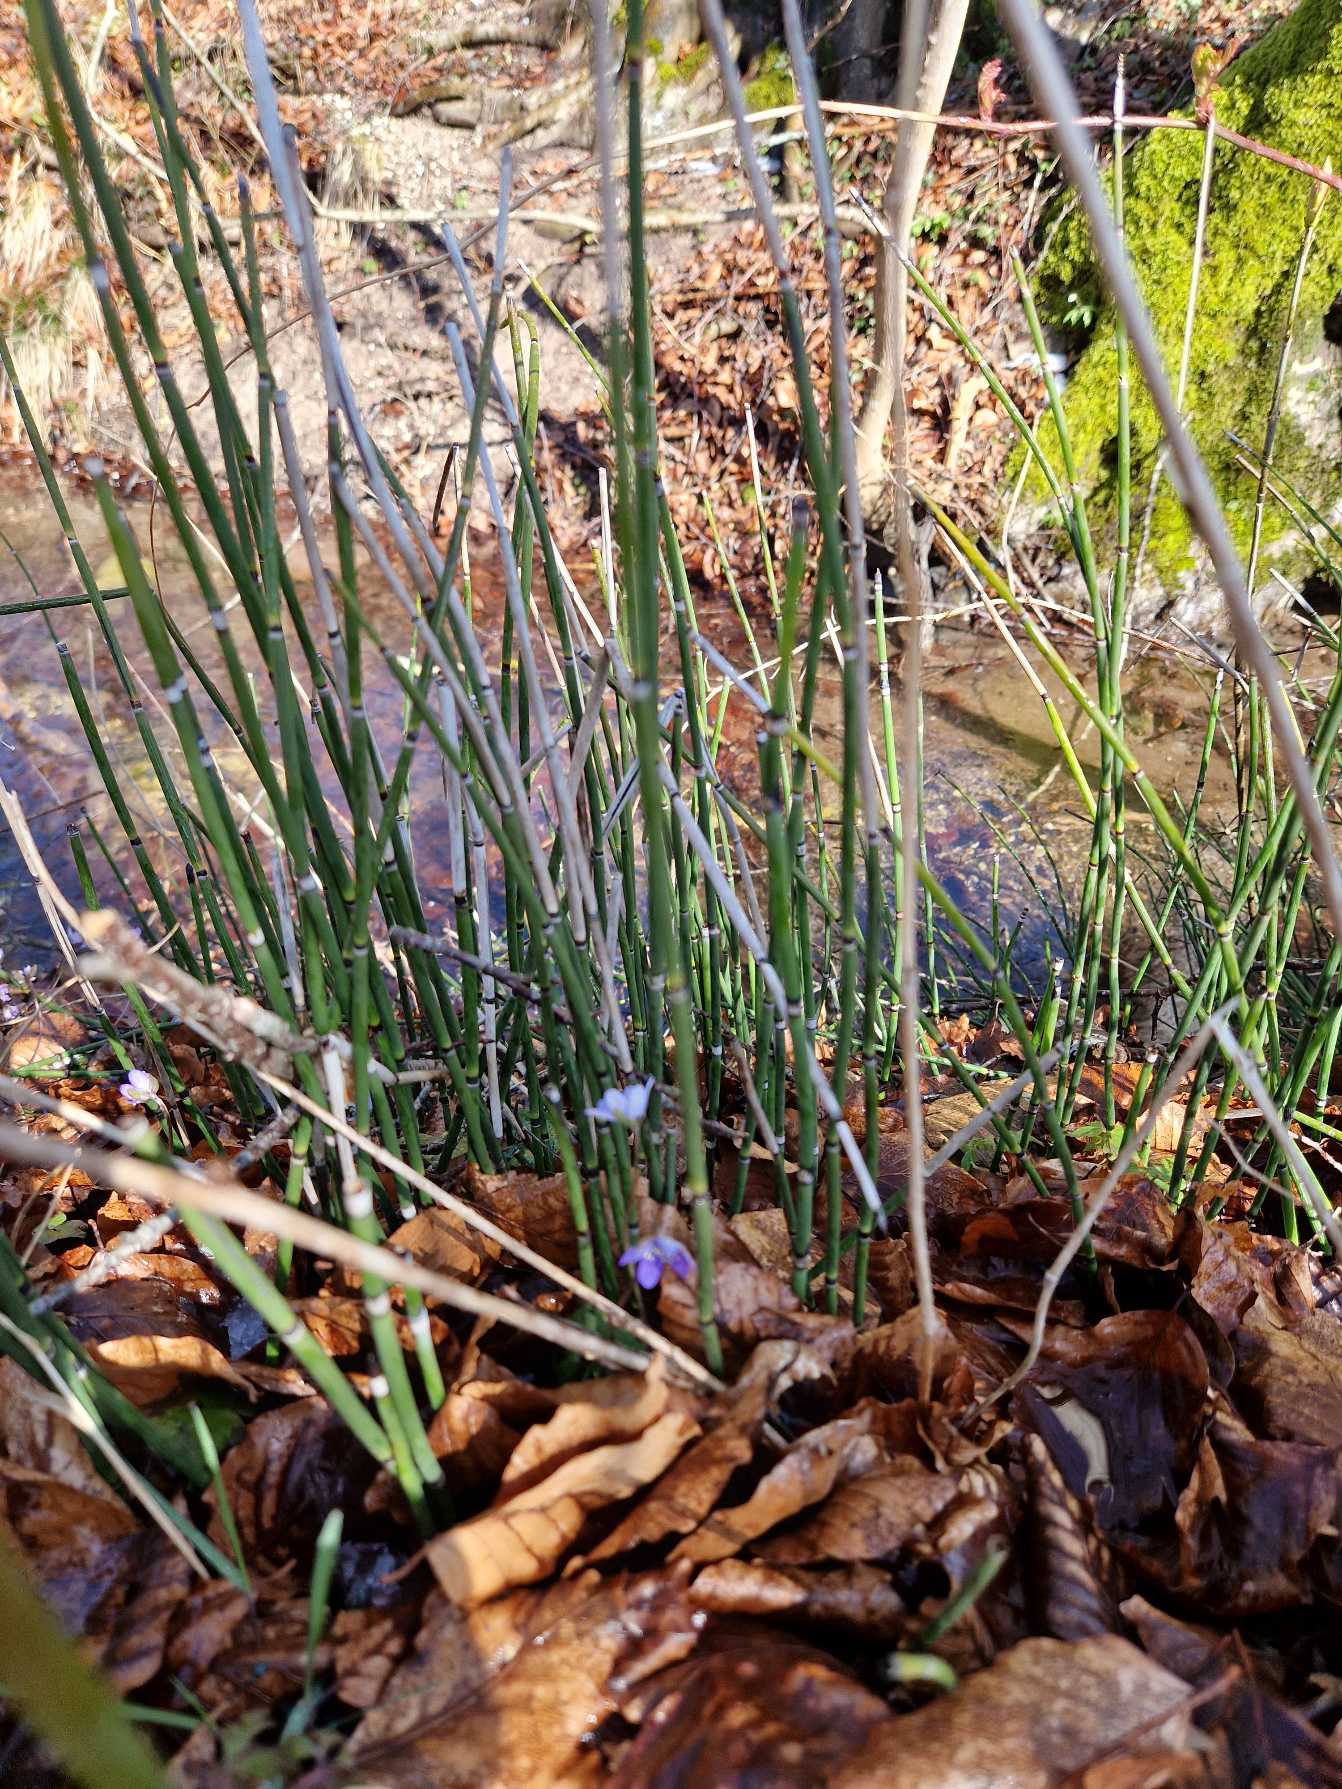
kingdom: Plantae
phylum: Tracheophyta
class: Polypodiopsida
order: Equisetales
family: Equisetaceae
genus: Equisetum
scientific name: Equisetum hyemale
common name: Skavgræs
